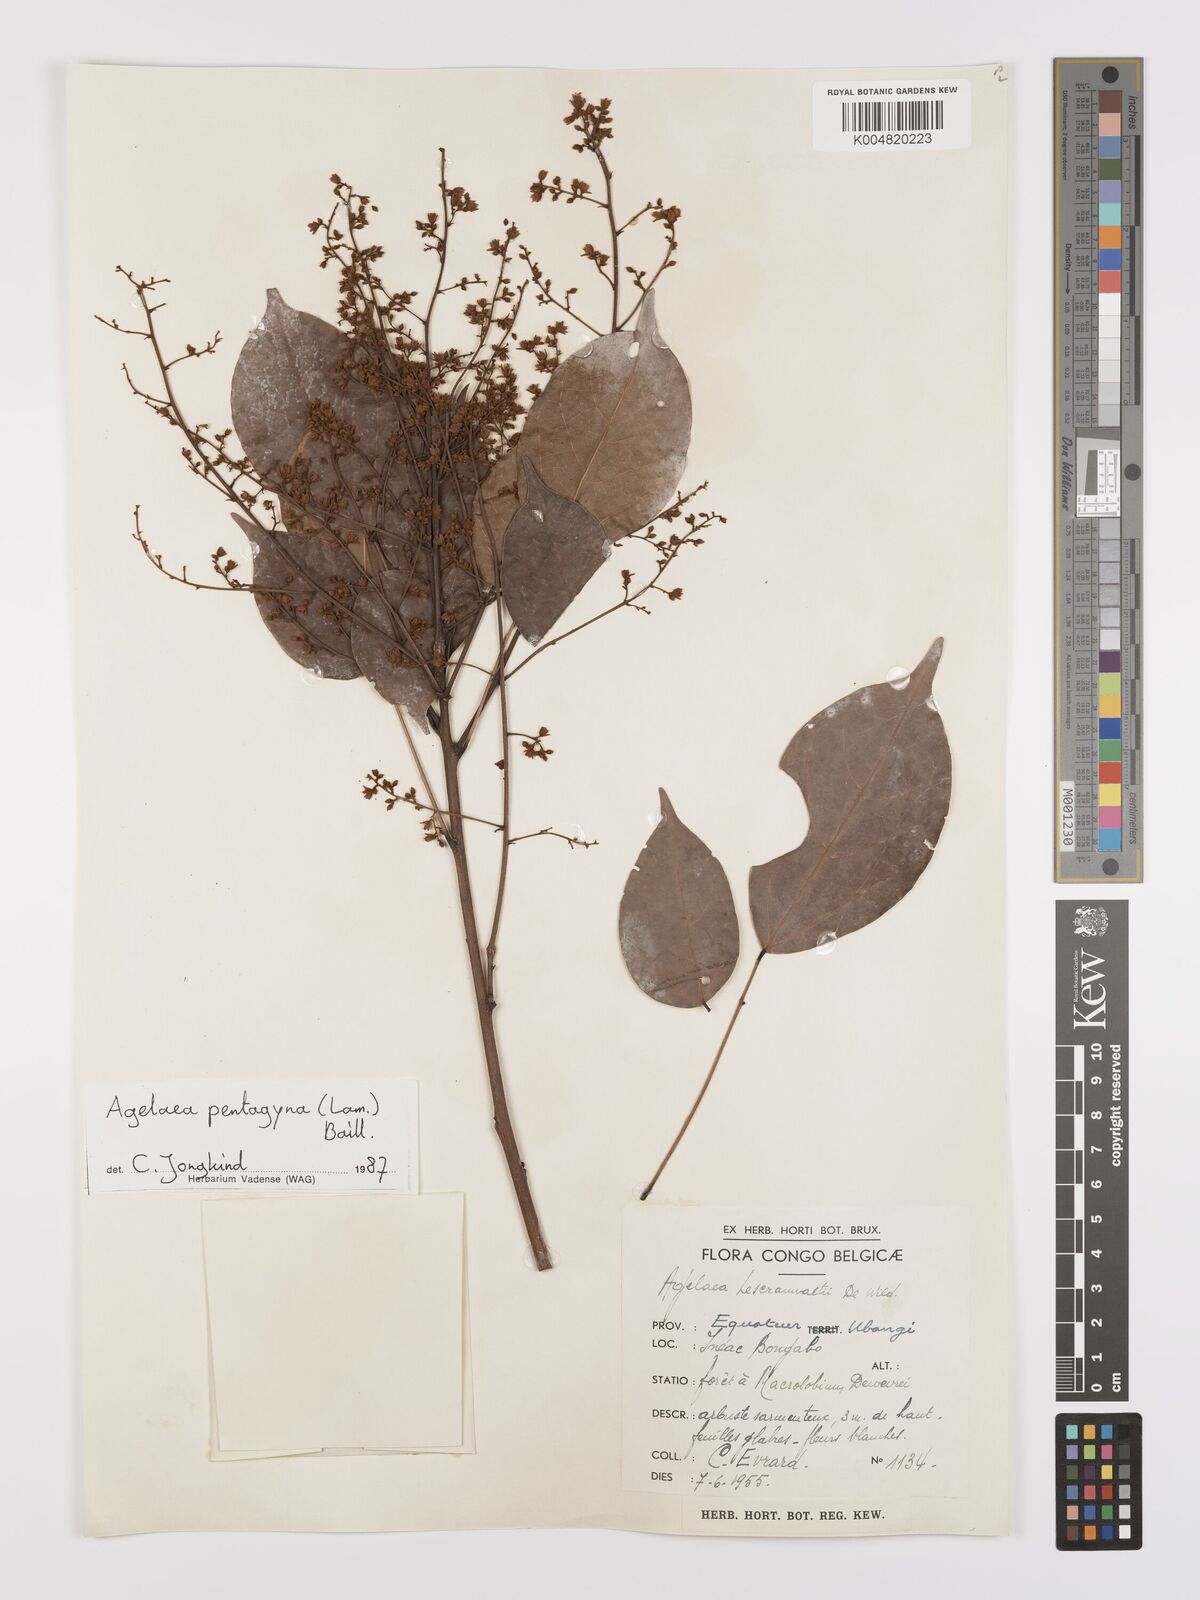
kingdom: Plantae
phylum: Tracheophyta
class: Magnoliopsida
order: Oxalidales
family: Connaraceae
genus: Agelaea
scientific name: Agelaea pentagyna
